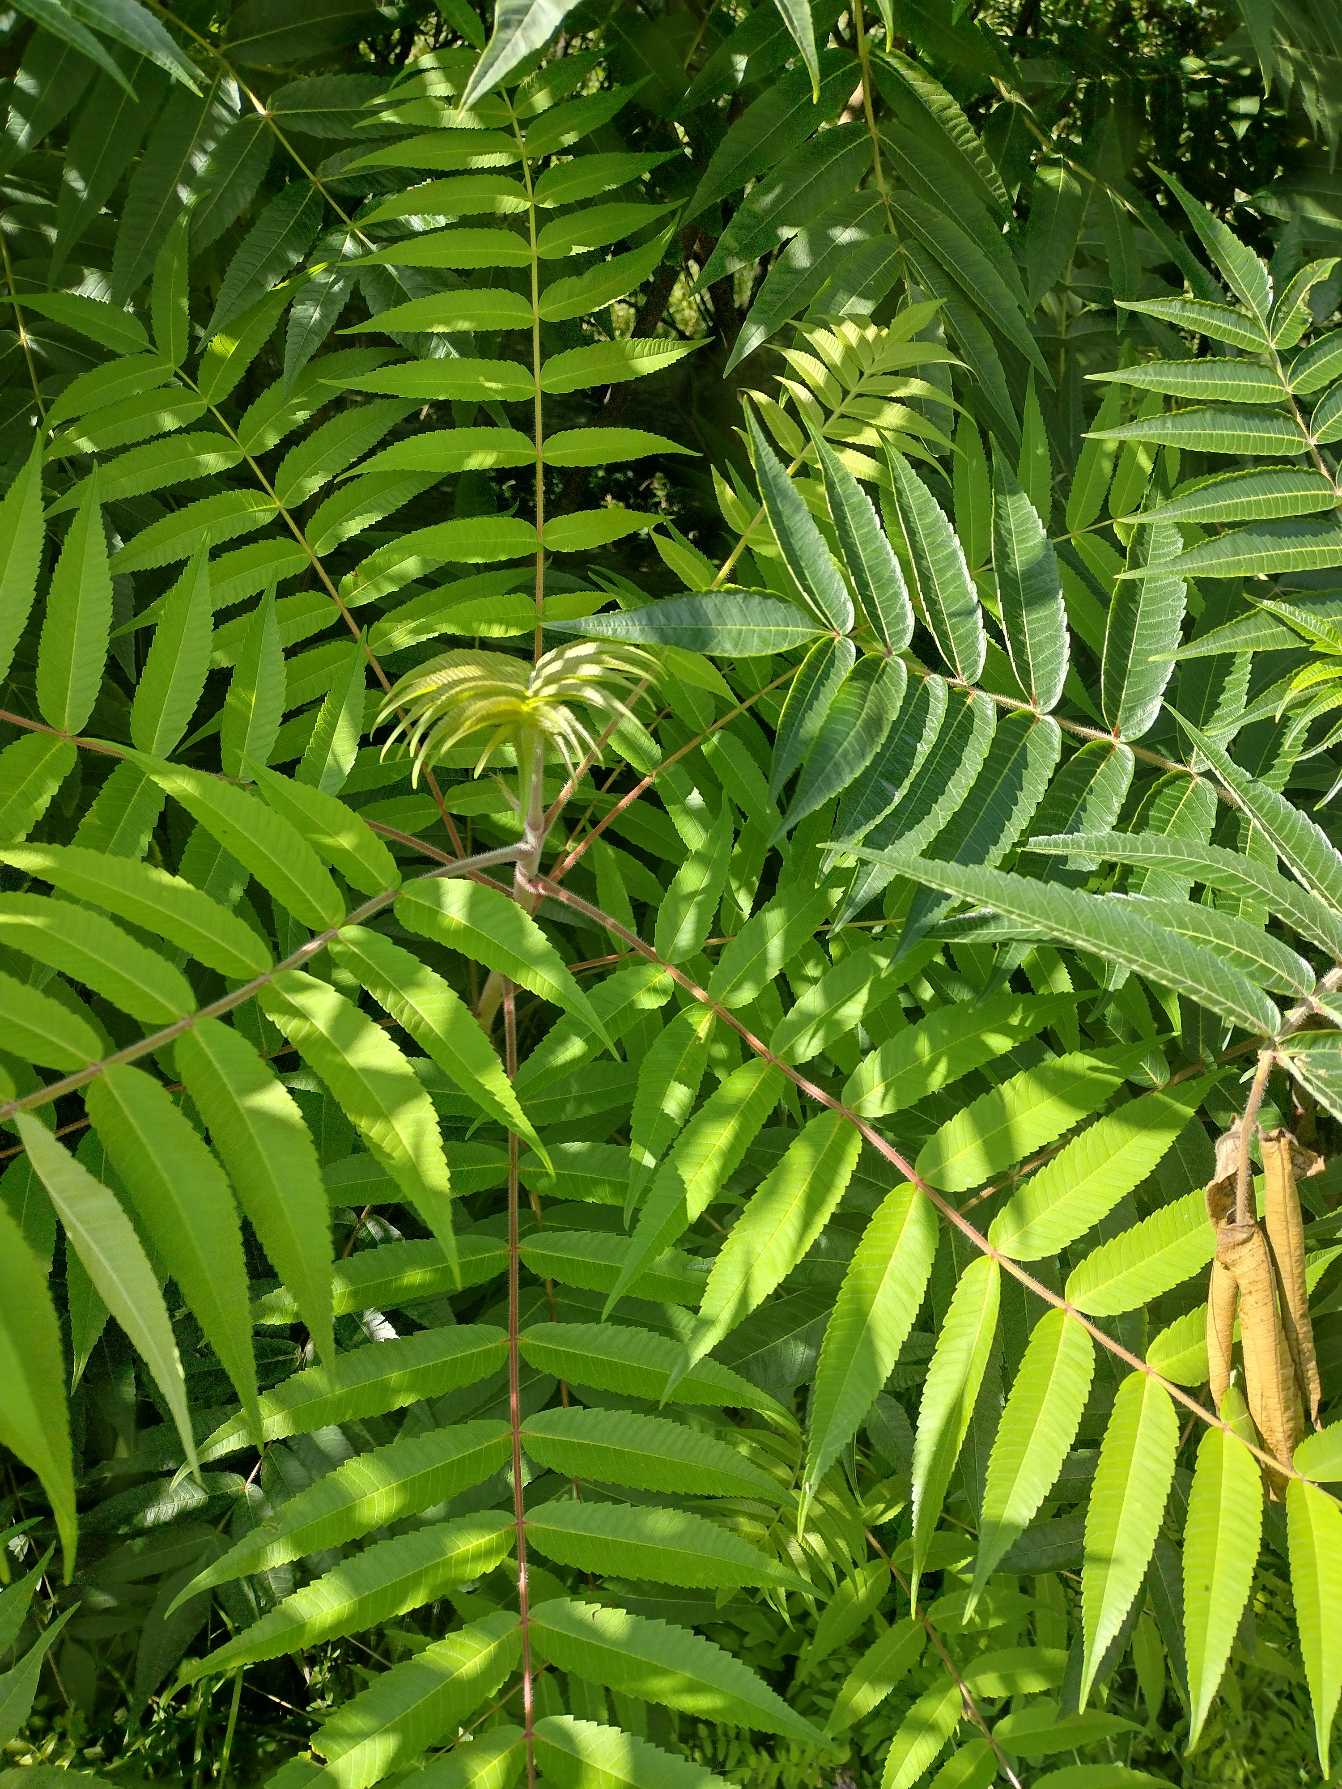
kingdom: Plantae
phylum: Tracheophyta
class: Magnoliopsida
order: Sapindales
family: Anacardiaceae
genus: Rhus
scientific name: Rhus typhina
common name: Hjortetaktræ
